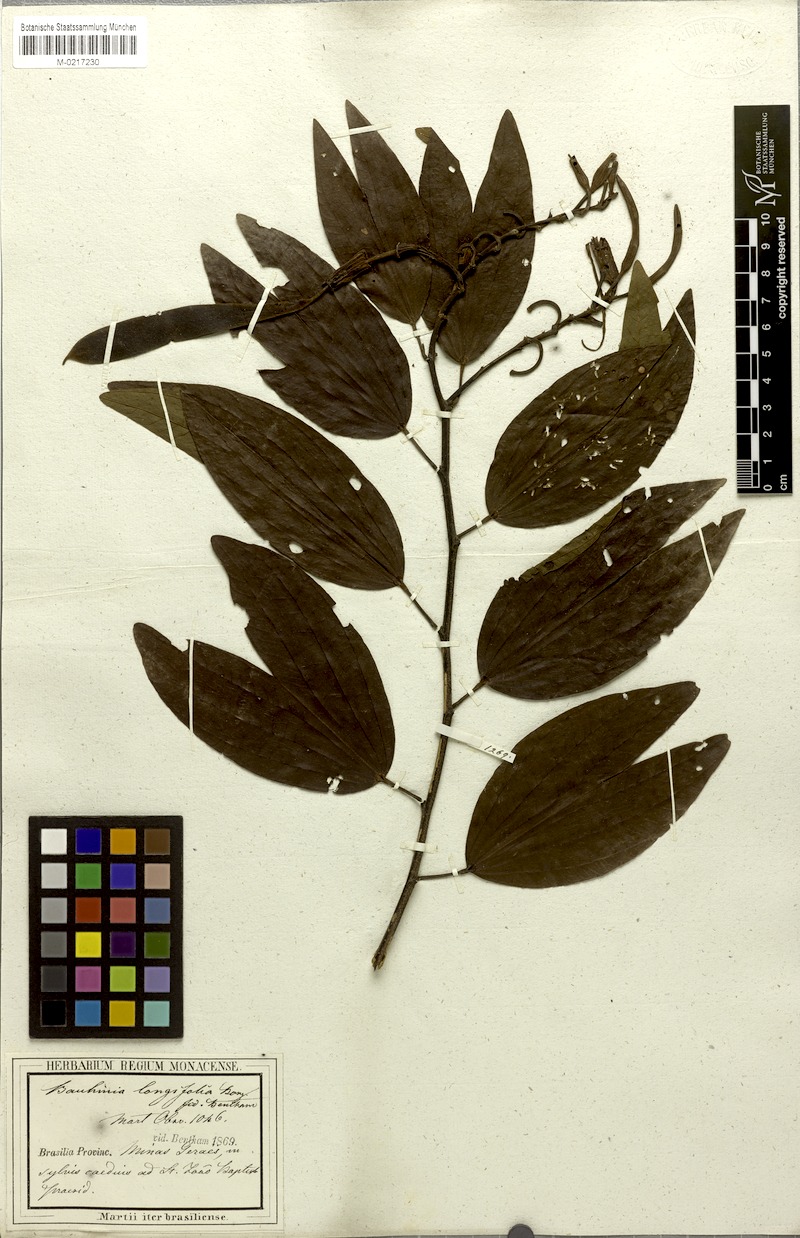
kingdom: Plantae
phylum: Tracheophyta
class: Magnoliopsida
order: Fabales
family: Fabaceae
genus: Bauhinia
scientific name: Bauhinia longifolia
